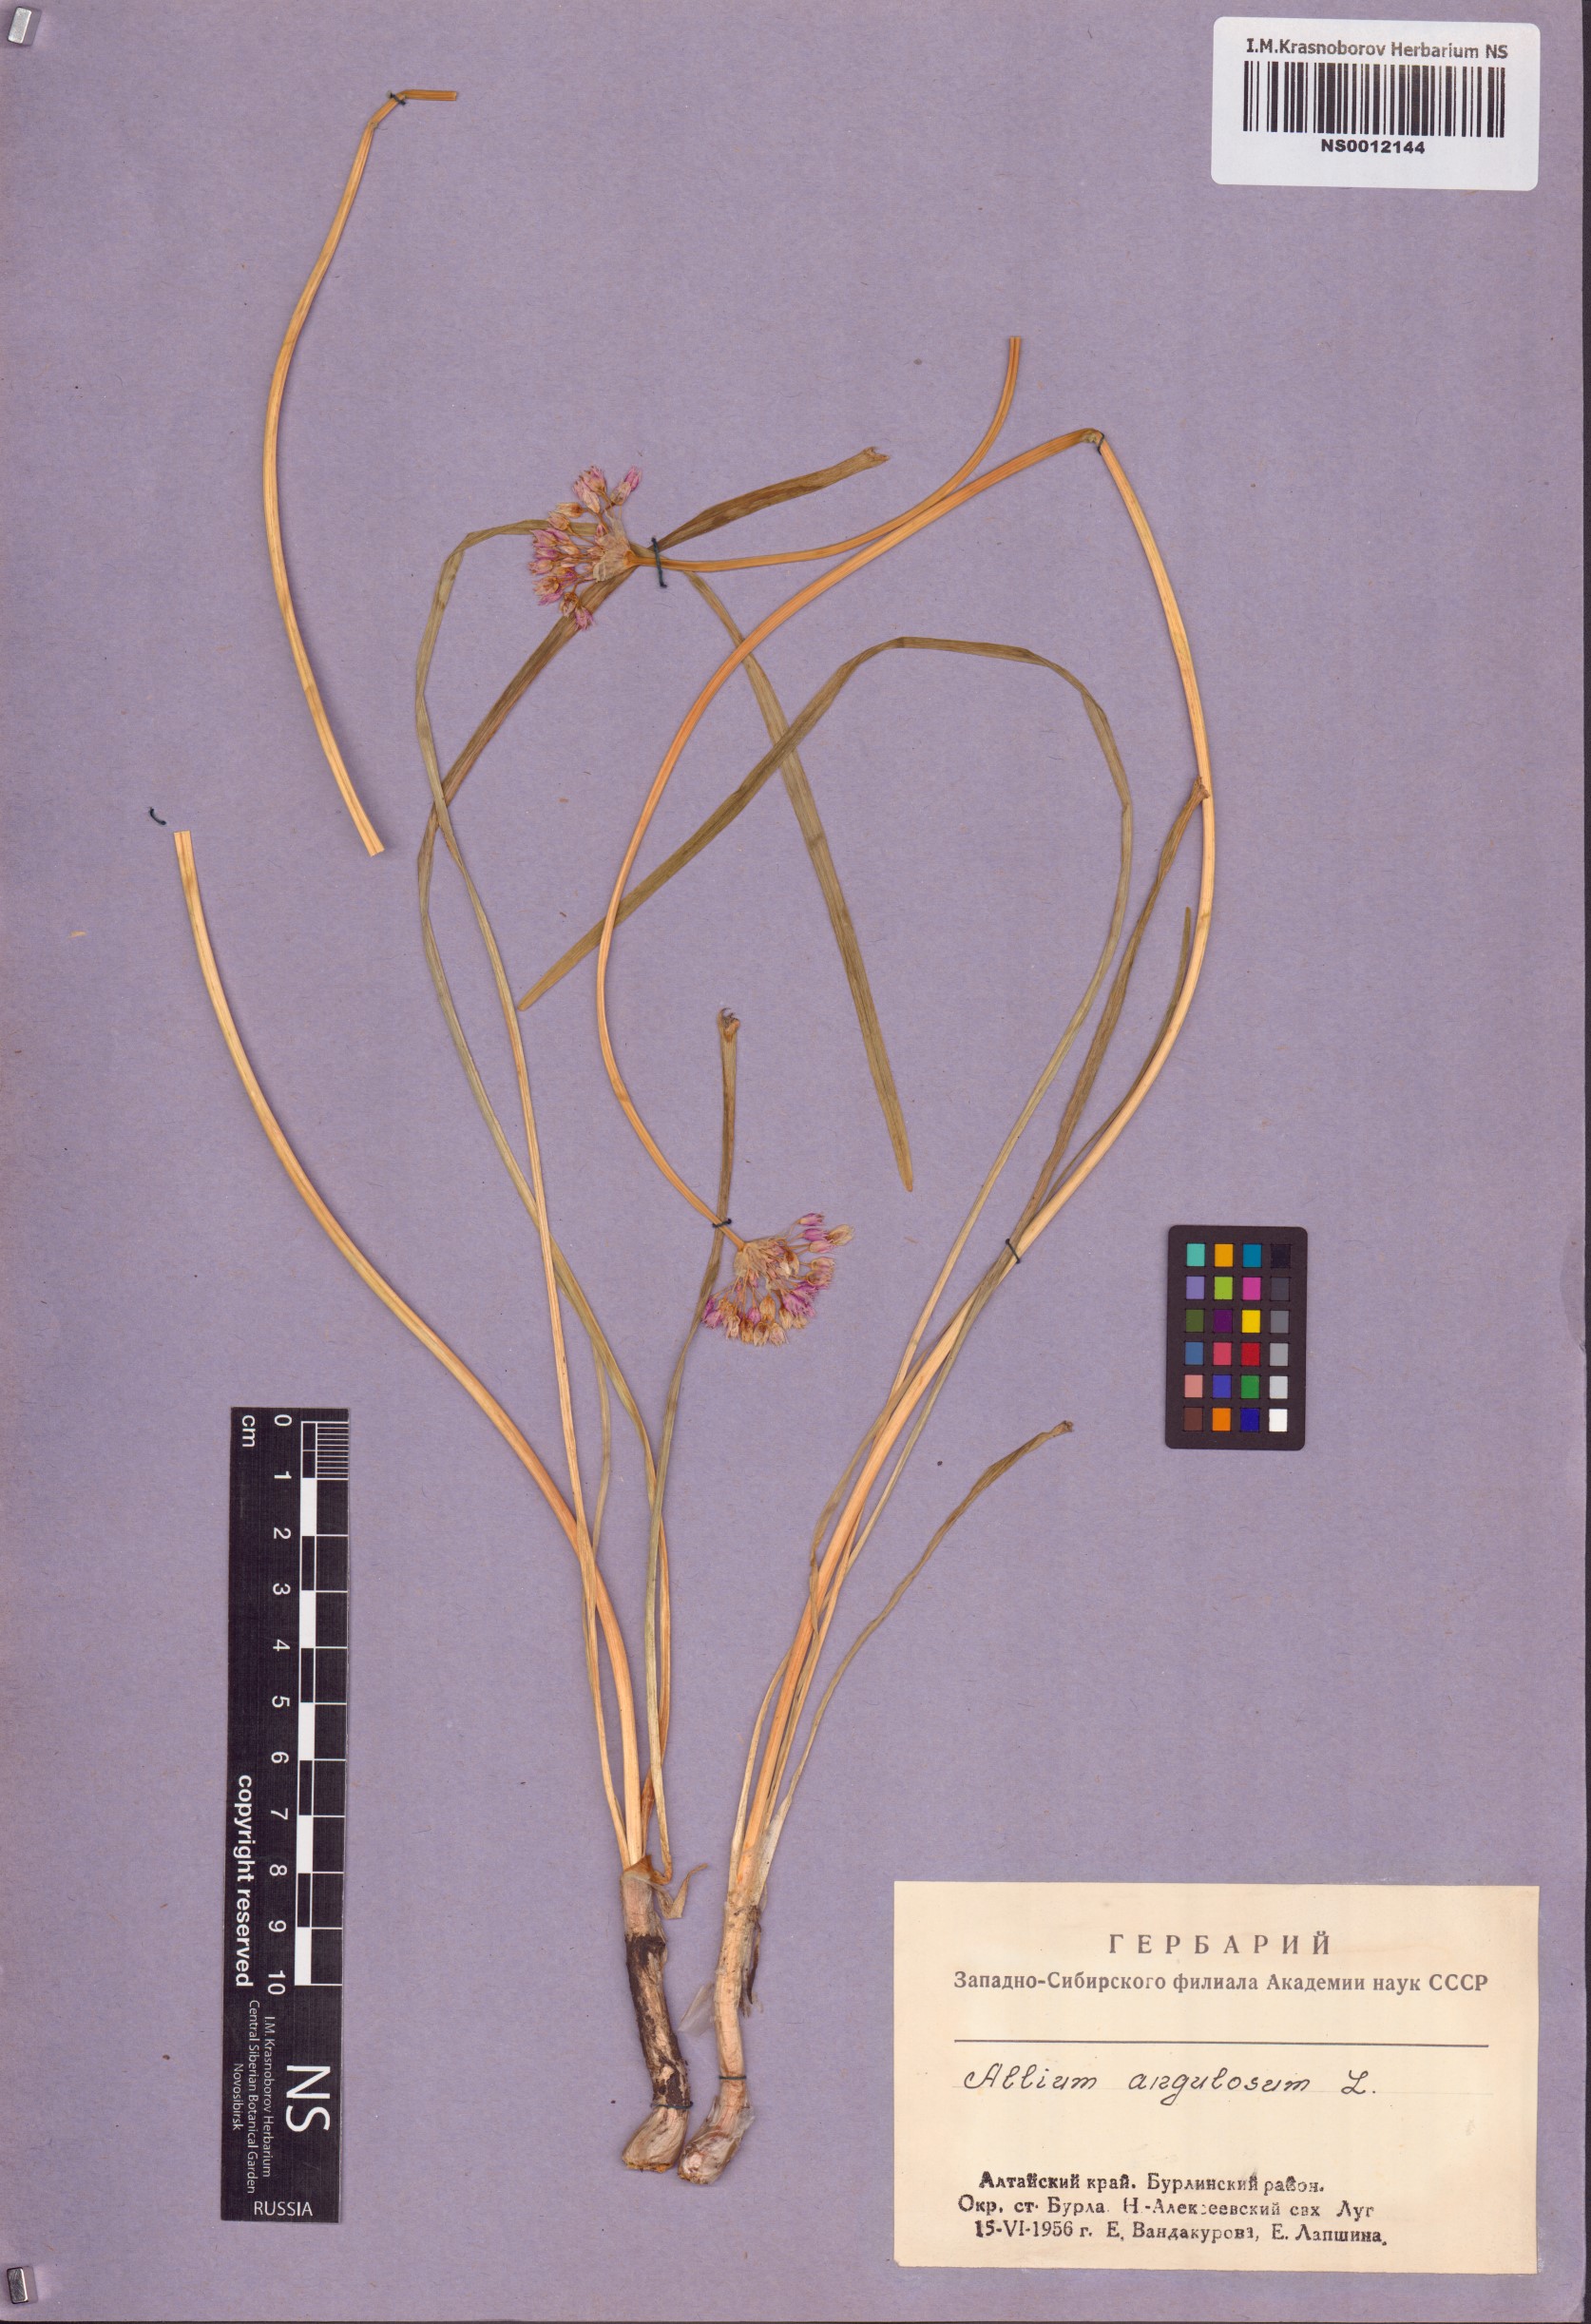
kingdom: Plantae
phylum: Tracheophyta
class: Liliopsida
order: Asparagales
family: Amaryllidaceae
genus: Allium
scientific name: Allium angulosum
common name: Mouse garlic
